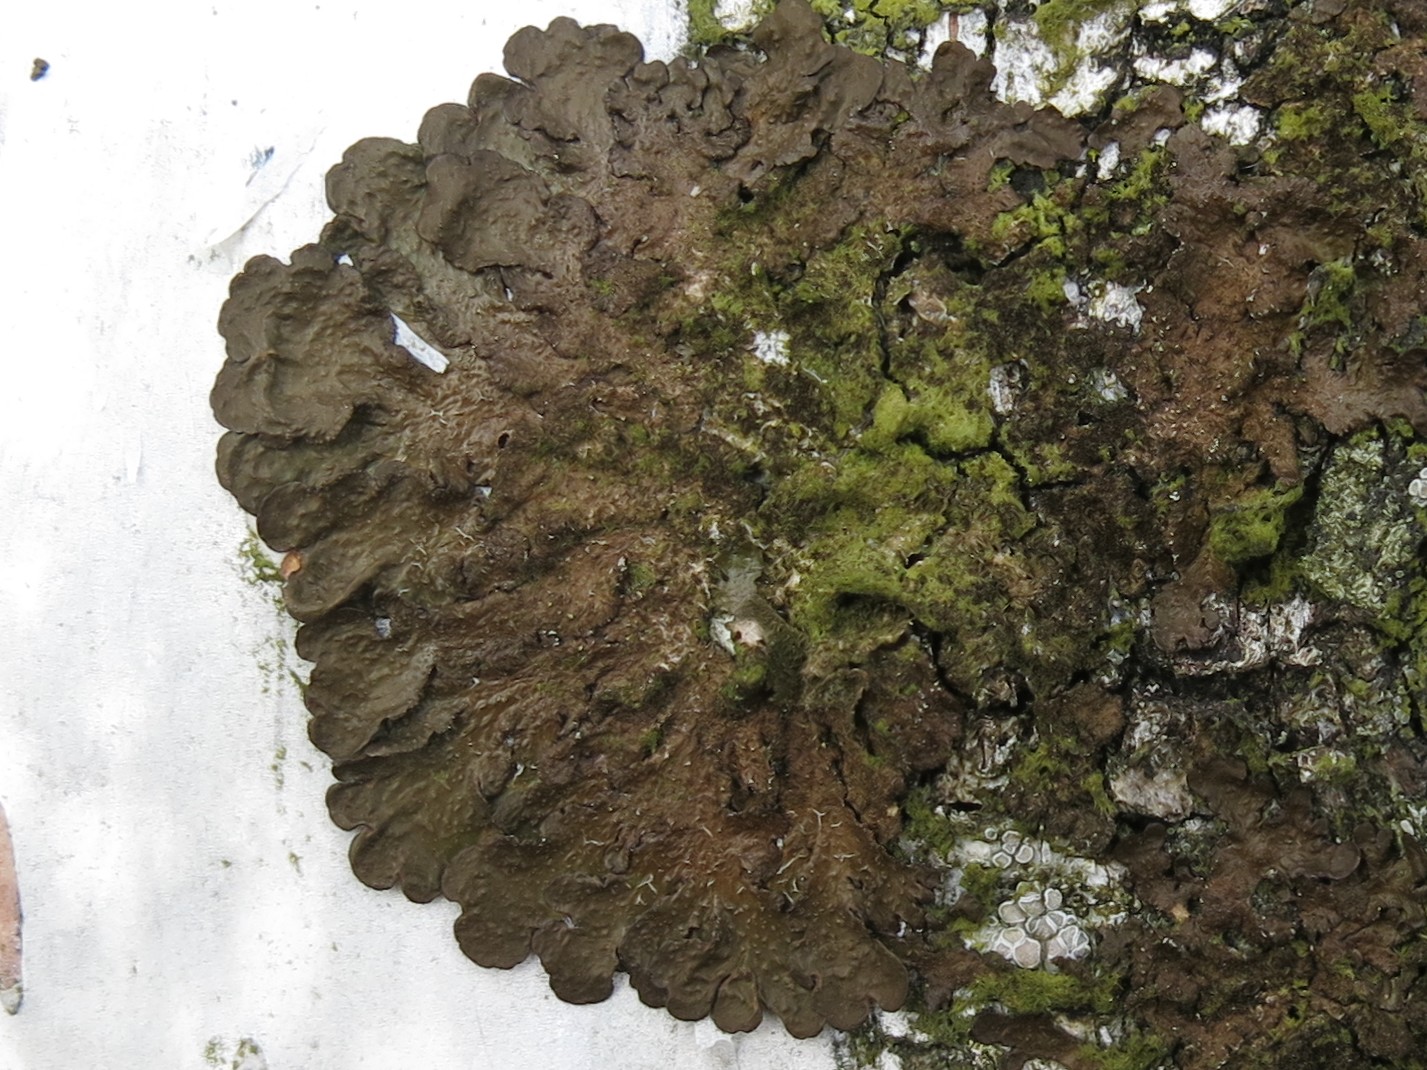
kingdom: Fungi
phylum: Ascomycota
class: Lecanoromycetes
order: Lecanorales
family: Parmeliaceae
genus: Melanelixia
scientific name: Melanelixia subaurifera
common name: guldpudret skållav
